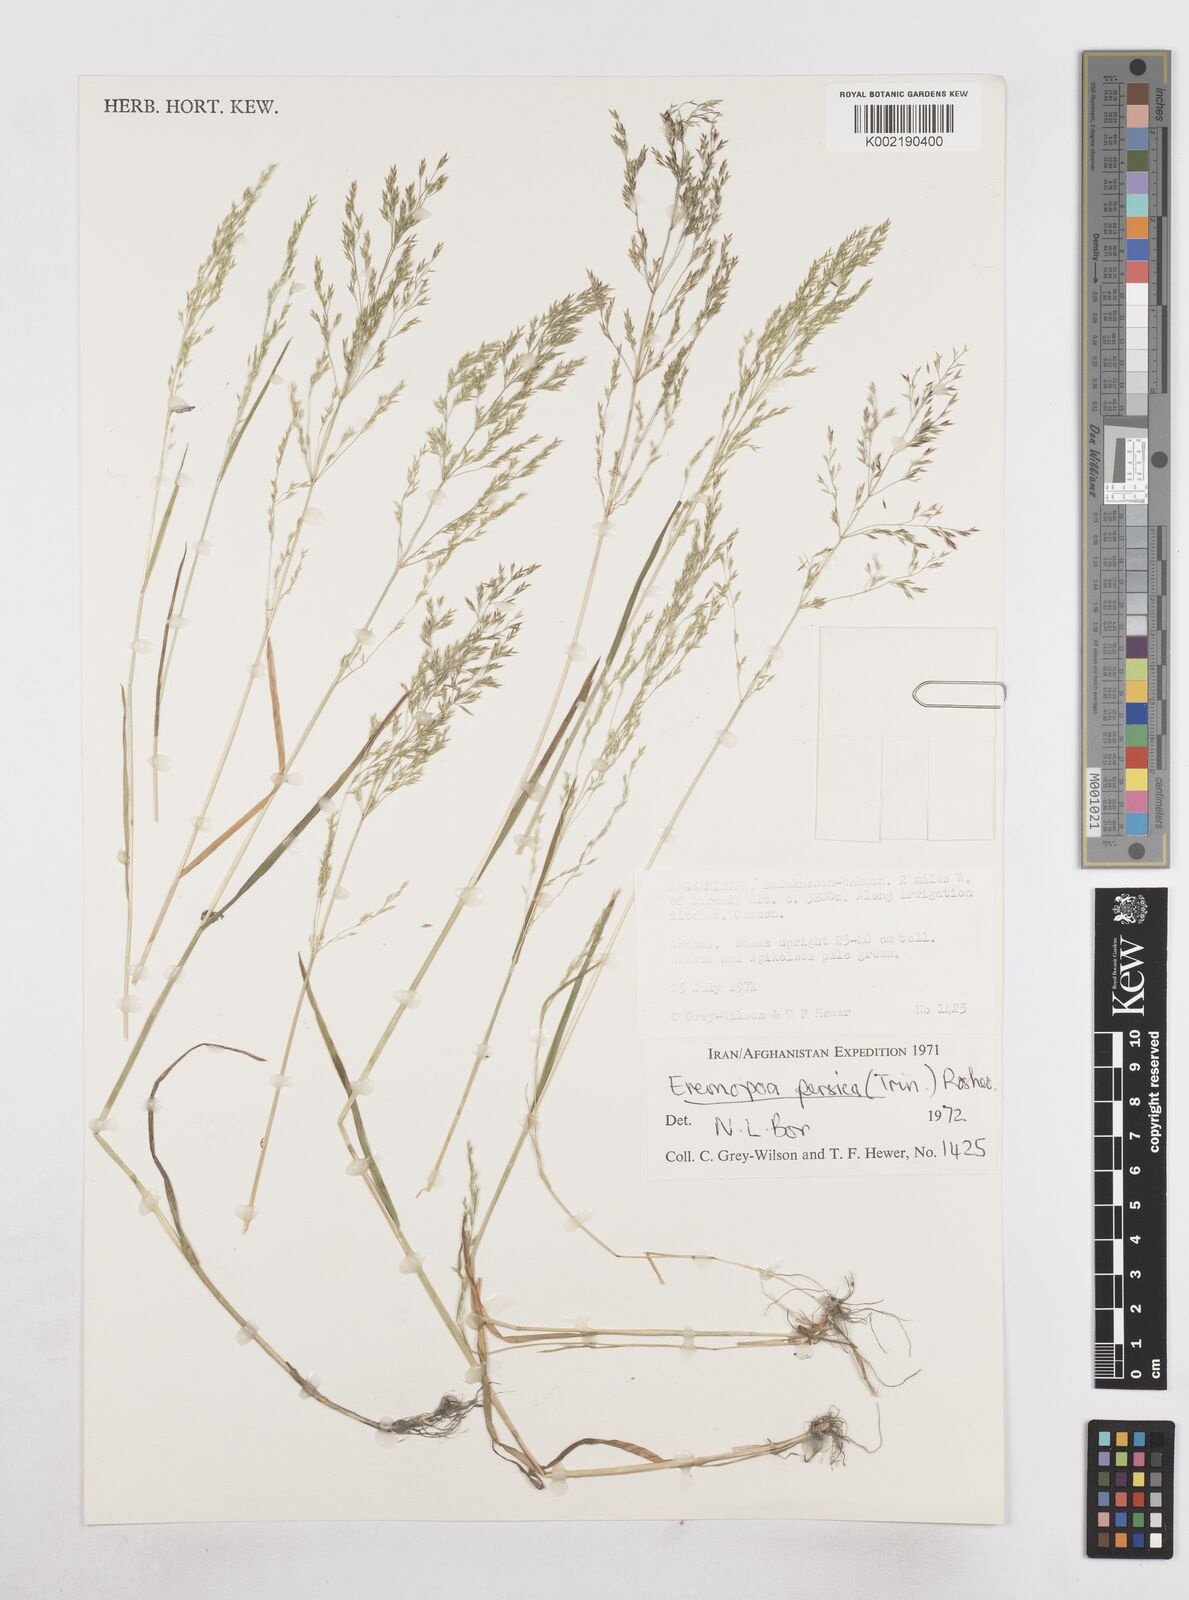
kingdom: Plantae
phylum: Tracheophyta
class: Liliopsida
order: Poales
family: Poaceae
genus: Poa
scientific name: Poa diaphora
